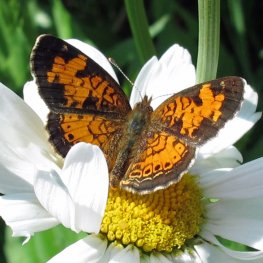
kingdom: Animalia
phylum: Arthropoda
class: Insecta
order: Lepidoptera
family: Nymphalidae
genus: Phyciodes
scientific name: Phyciodes tharos
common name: Northern Crescent
